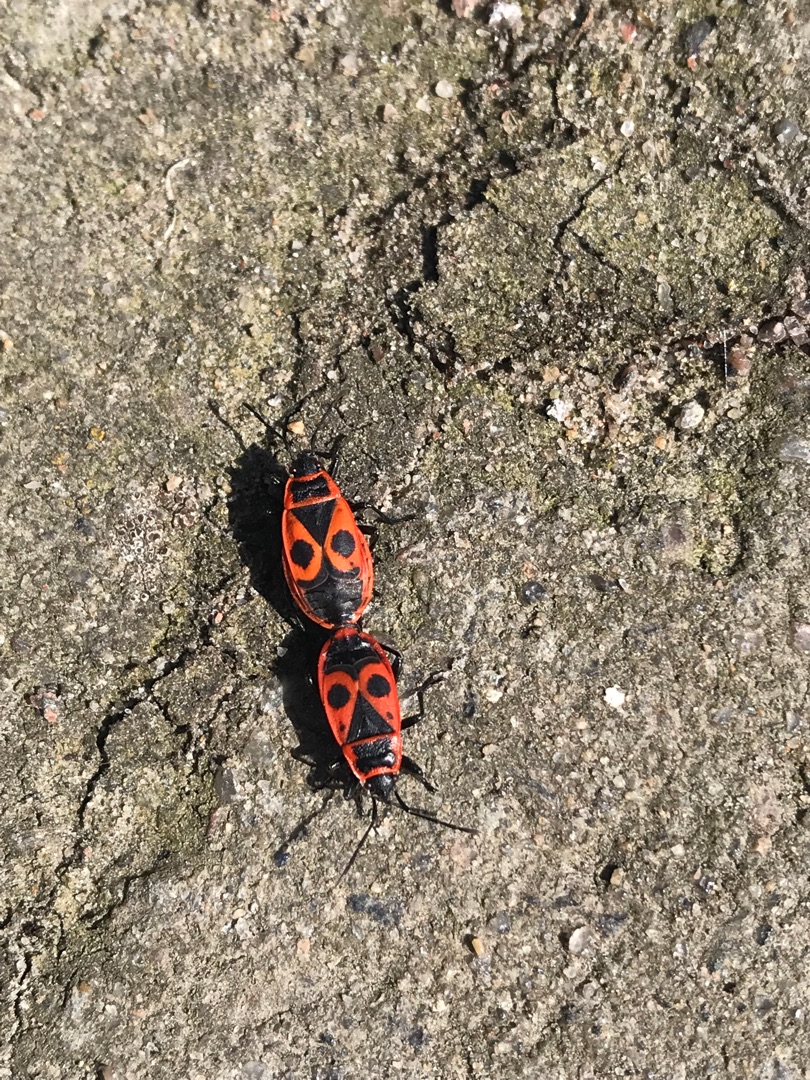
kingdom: Animalia
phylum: Arthropoda
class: Insecta
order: Hemiptera
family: Pyrrhocoridae
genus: Pyrrhocoris
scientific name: Pyrrhocoris apterus
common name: Ildtæge
